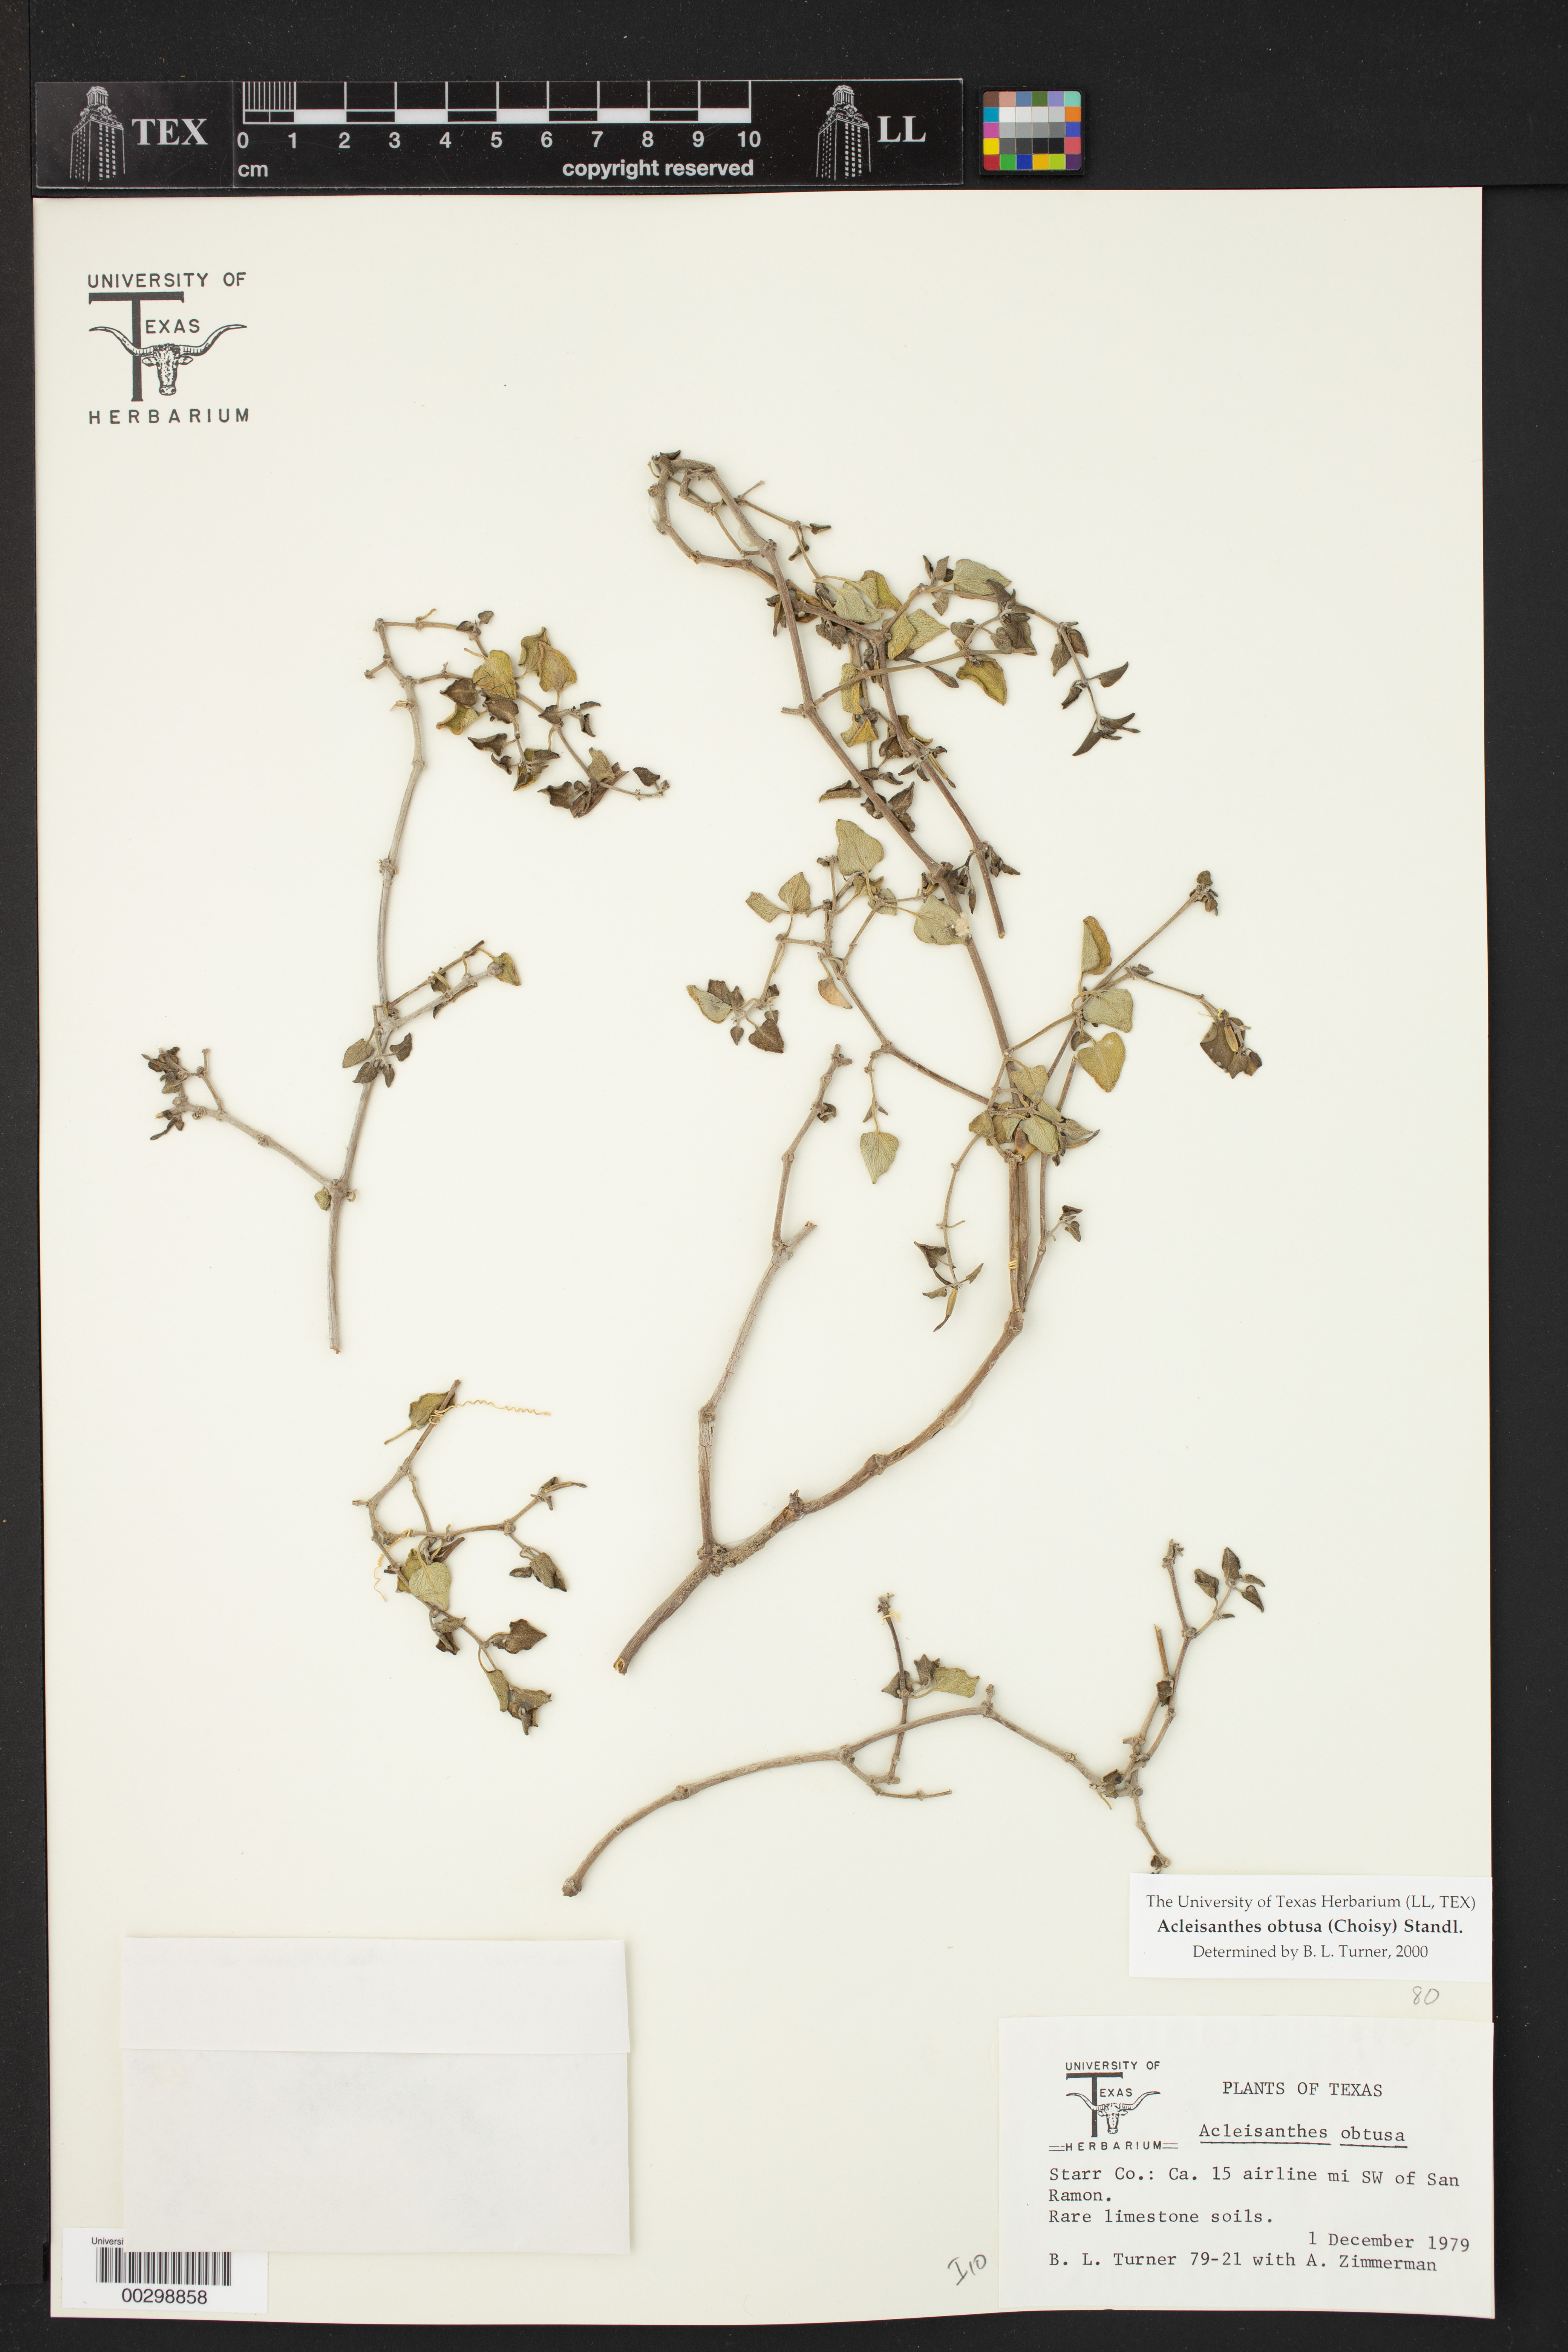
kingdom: Plantae
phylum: Tracheophyta
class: Magnoliopsida
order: Caryophyllales
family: Nyctaginaceae
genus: Acleisanthes
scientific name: Acleisanthes obtusa
